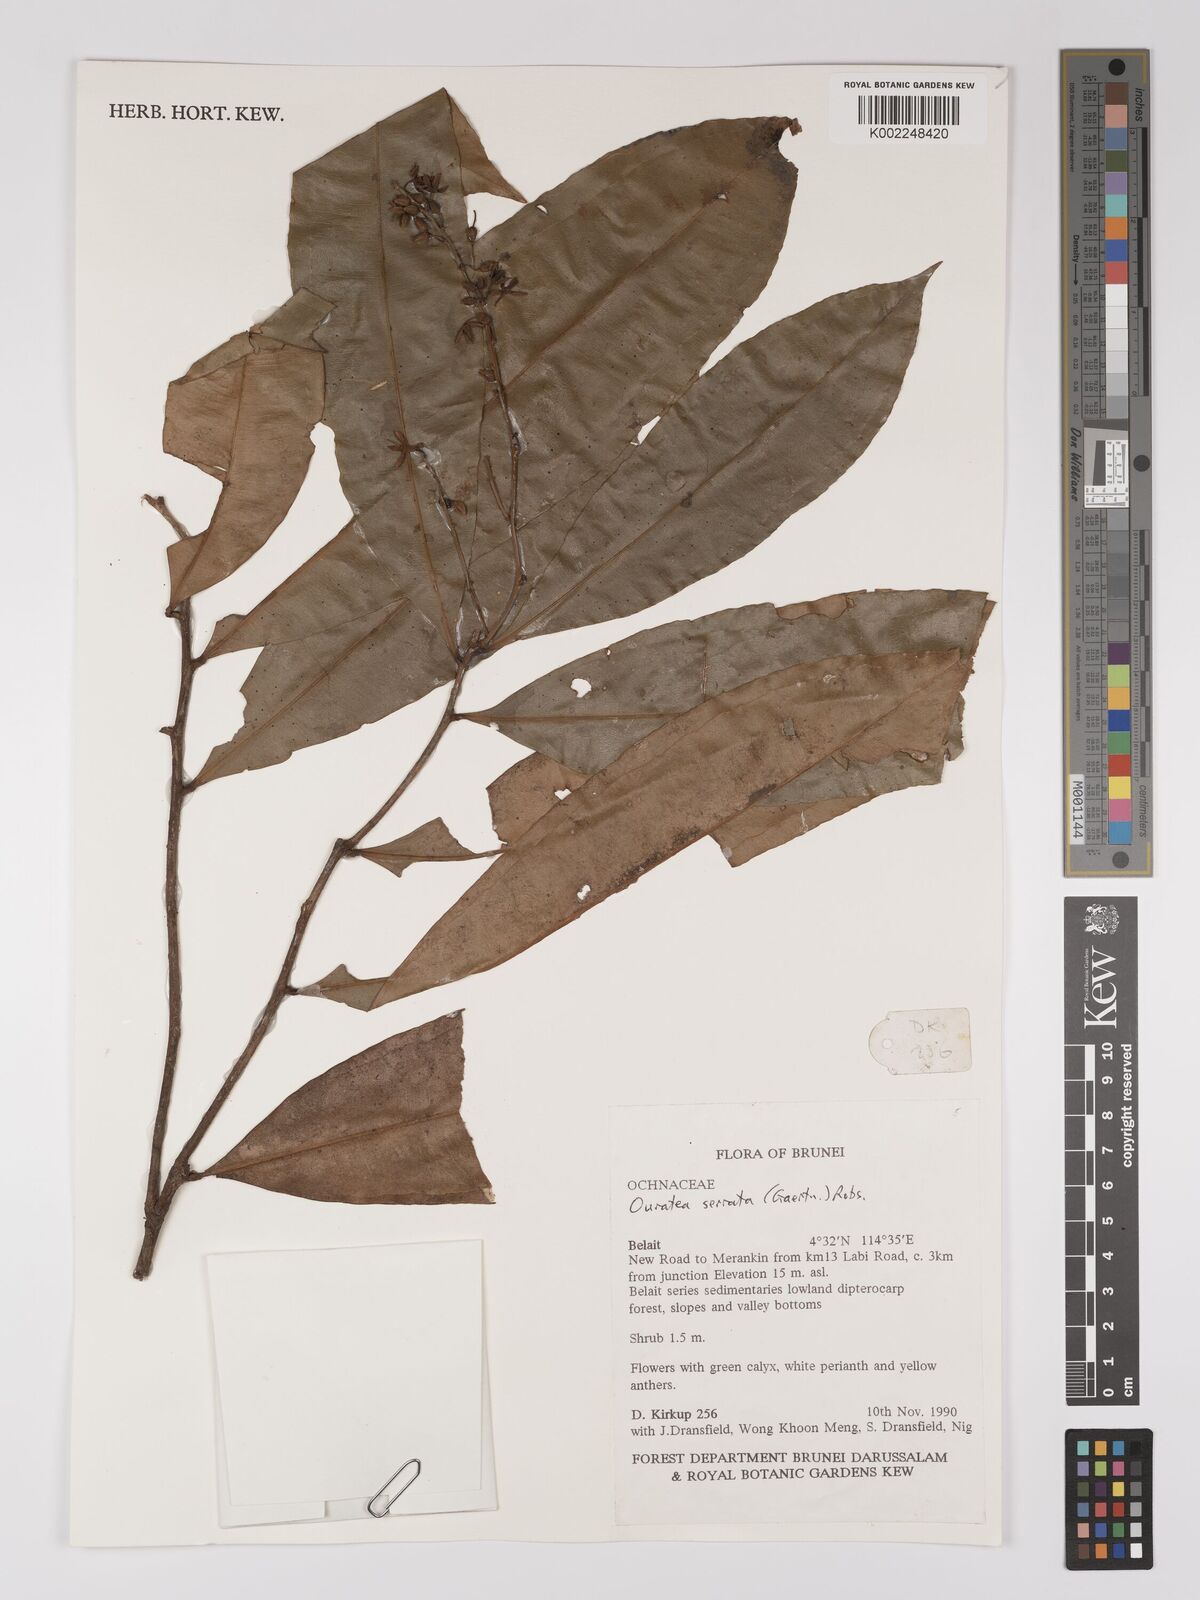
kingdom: Plantae
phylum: Tracheophyta
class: Magnoliopsida
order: Malpighiales
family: Ochnaceae
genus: Gomphia
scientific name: Gomphia serrata
